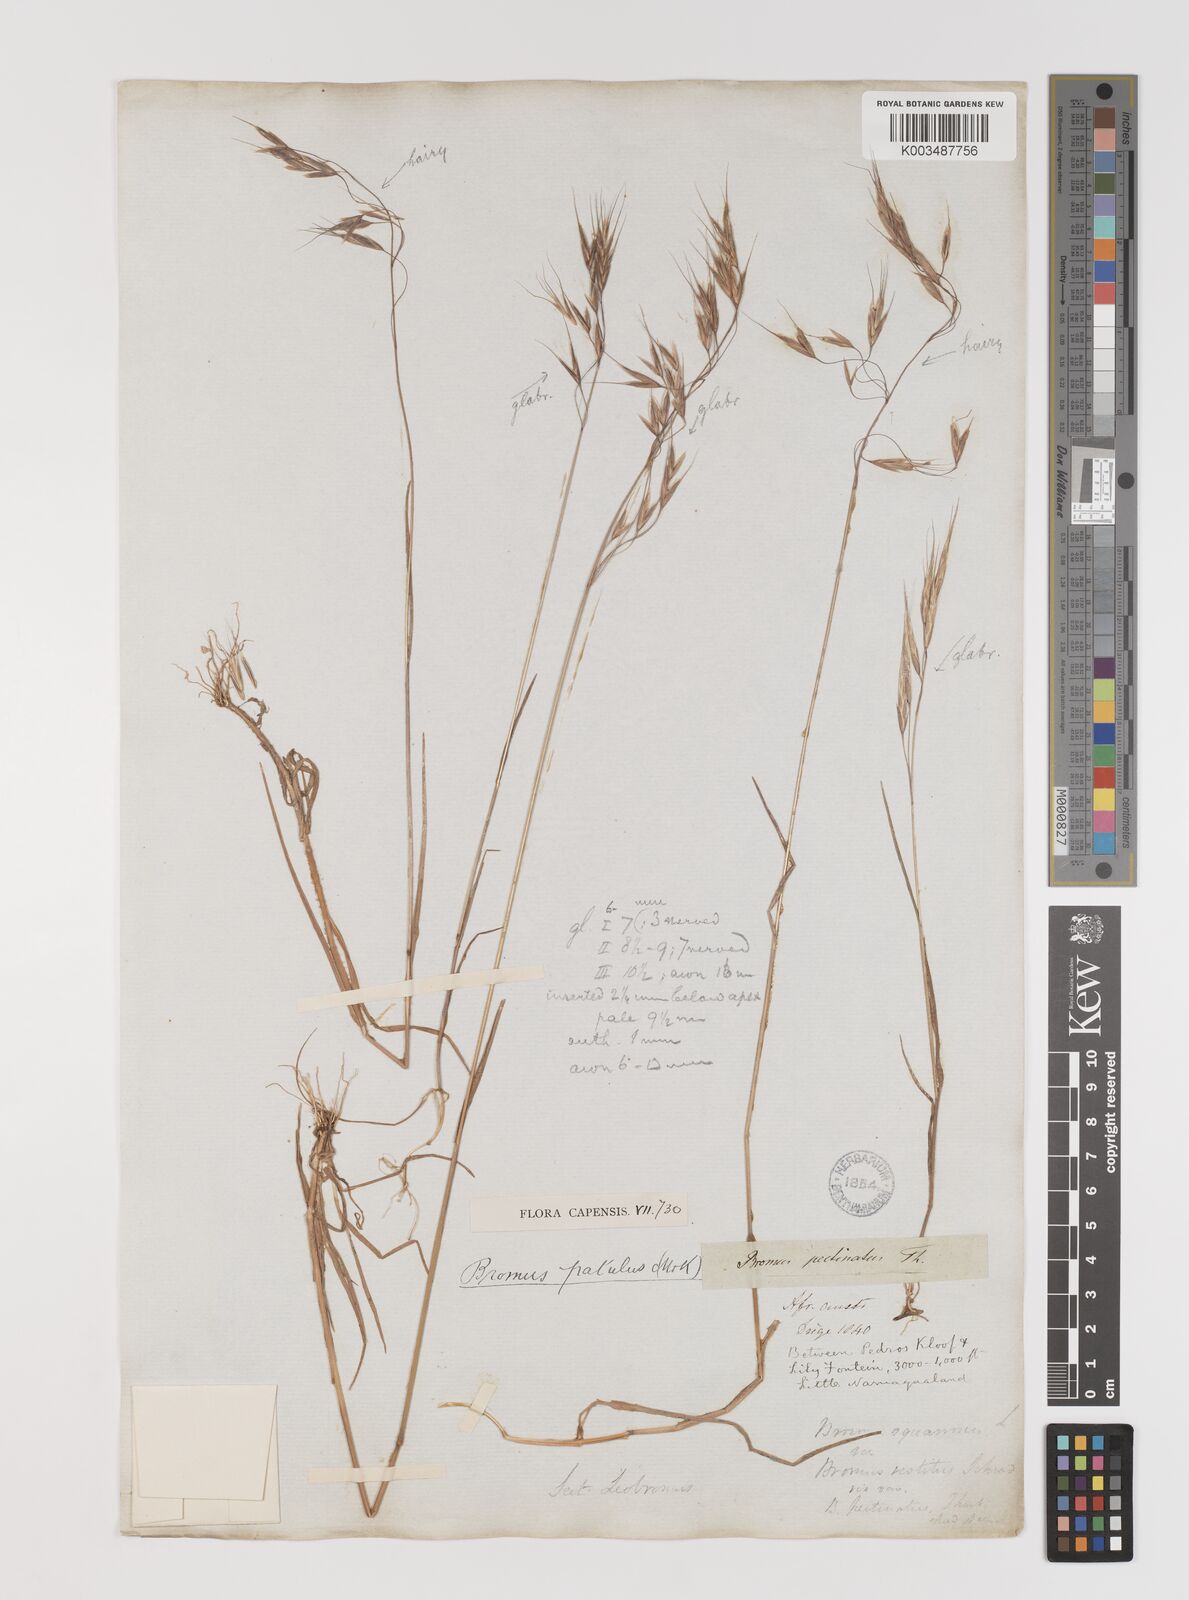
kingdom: Plantae
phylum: Tracheophyta
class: Liliopsida
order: Poales
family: Poaceae
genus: Bromus
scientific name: Bromus pectinatus
